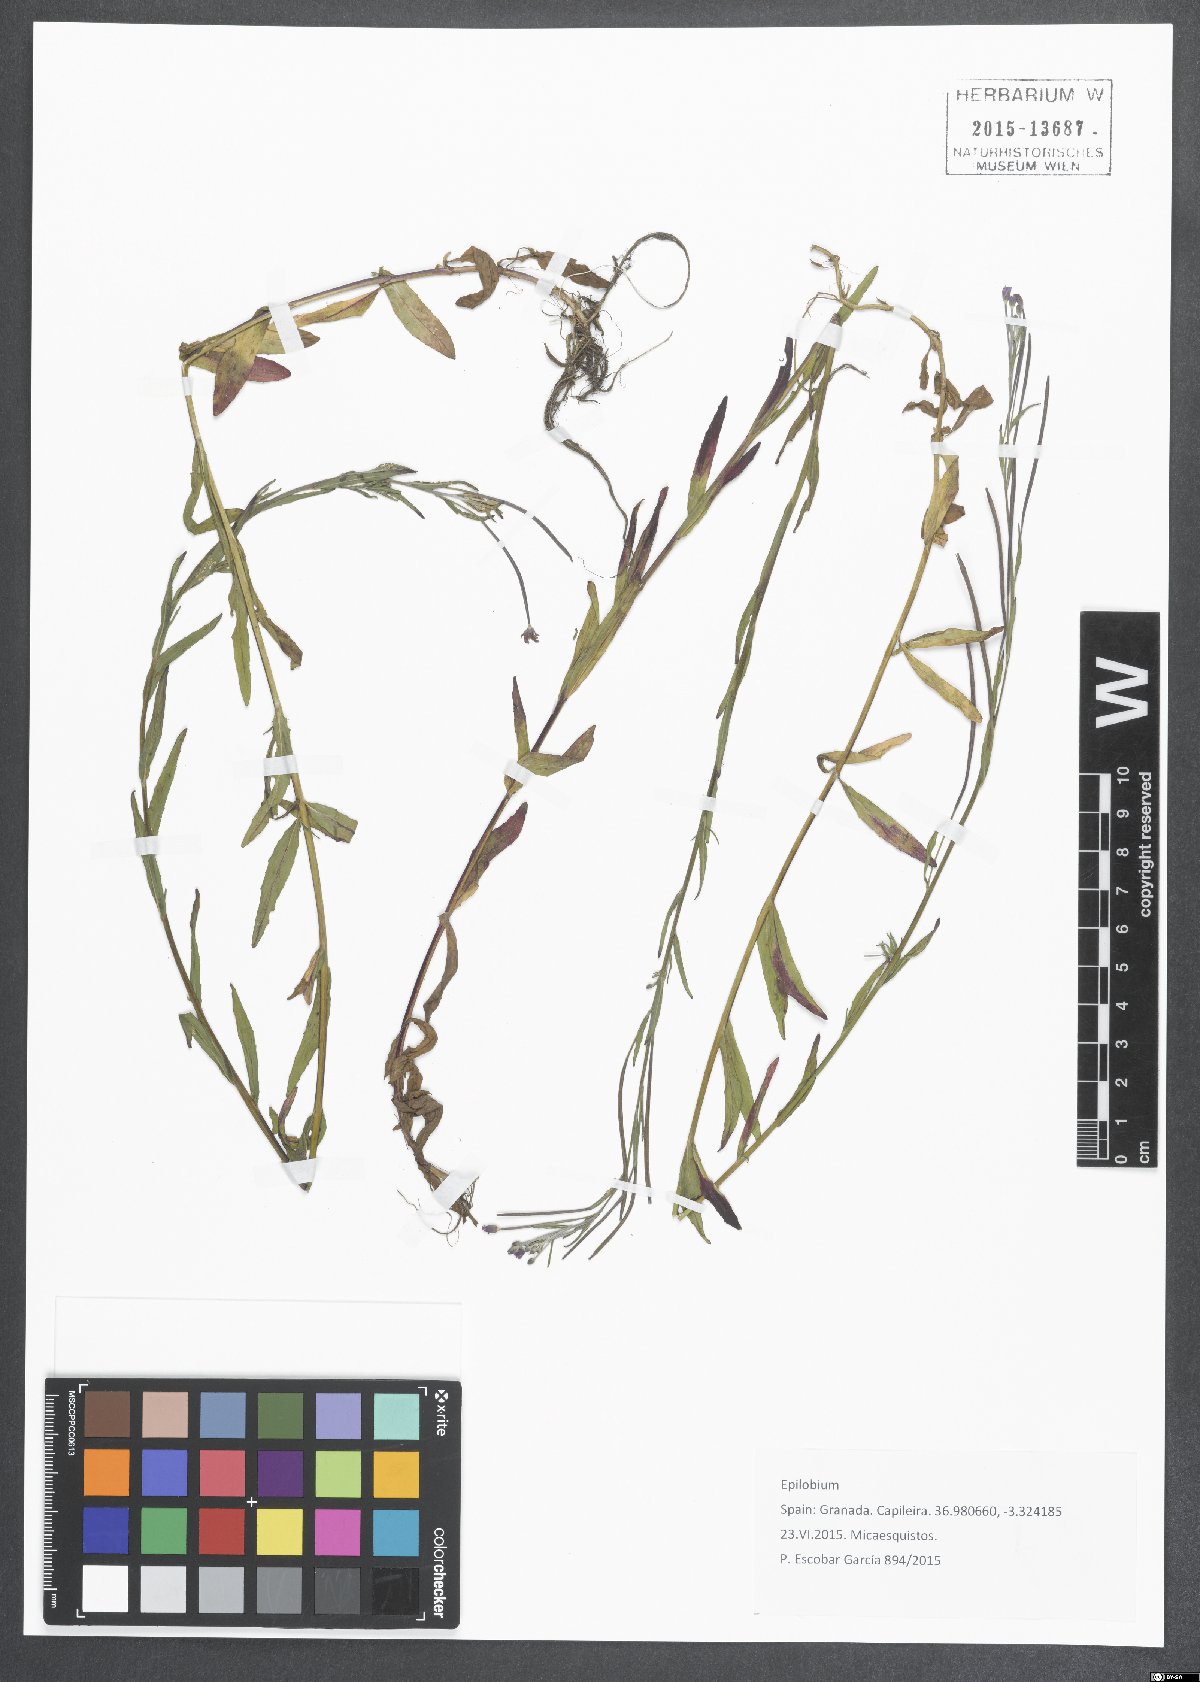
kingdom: Plantae
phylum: Tracheophyta
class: Magnoliopsida
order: Myrtales
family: Onagraceae
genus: Epilobium
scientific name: Epilobium
